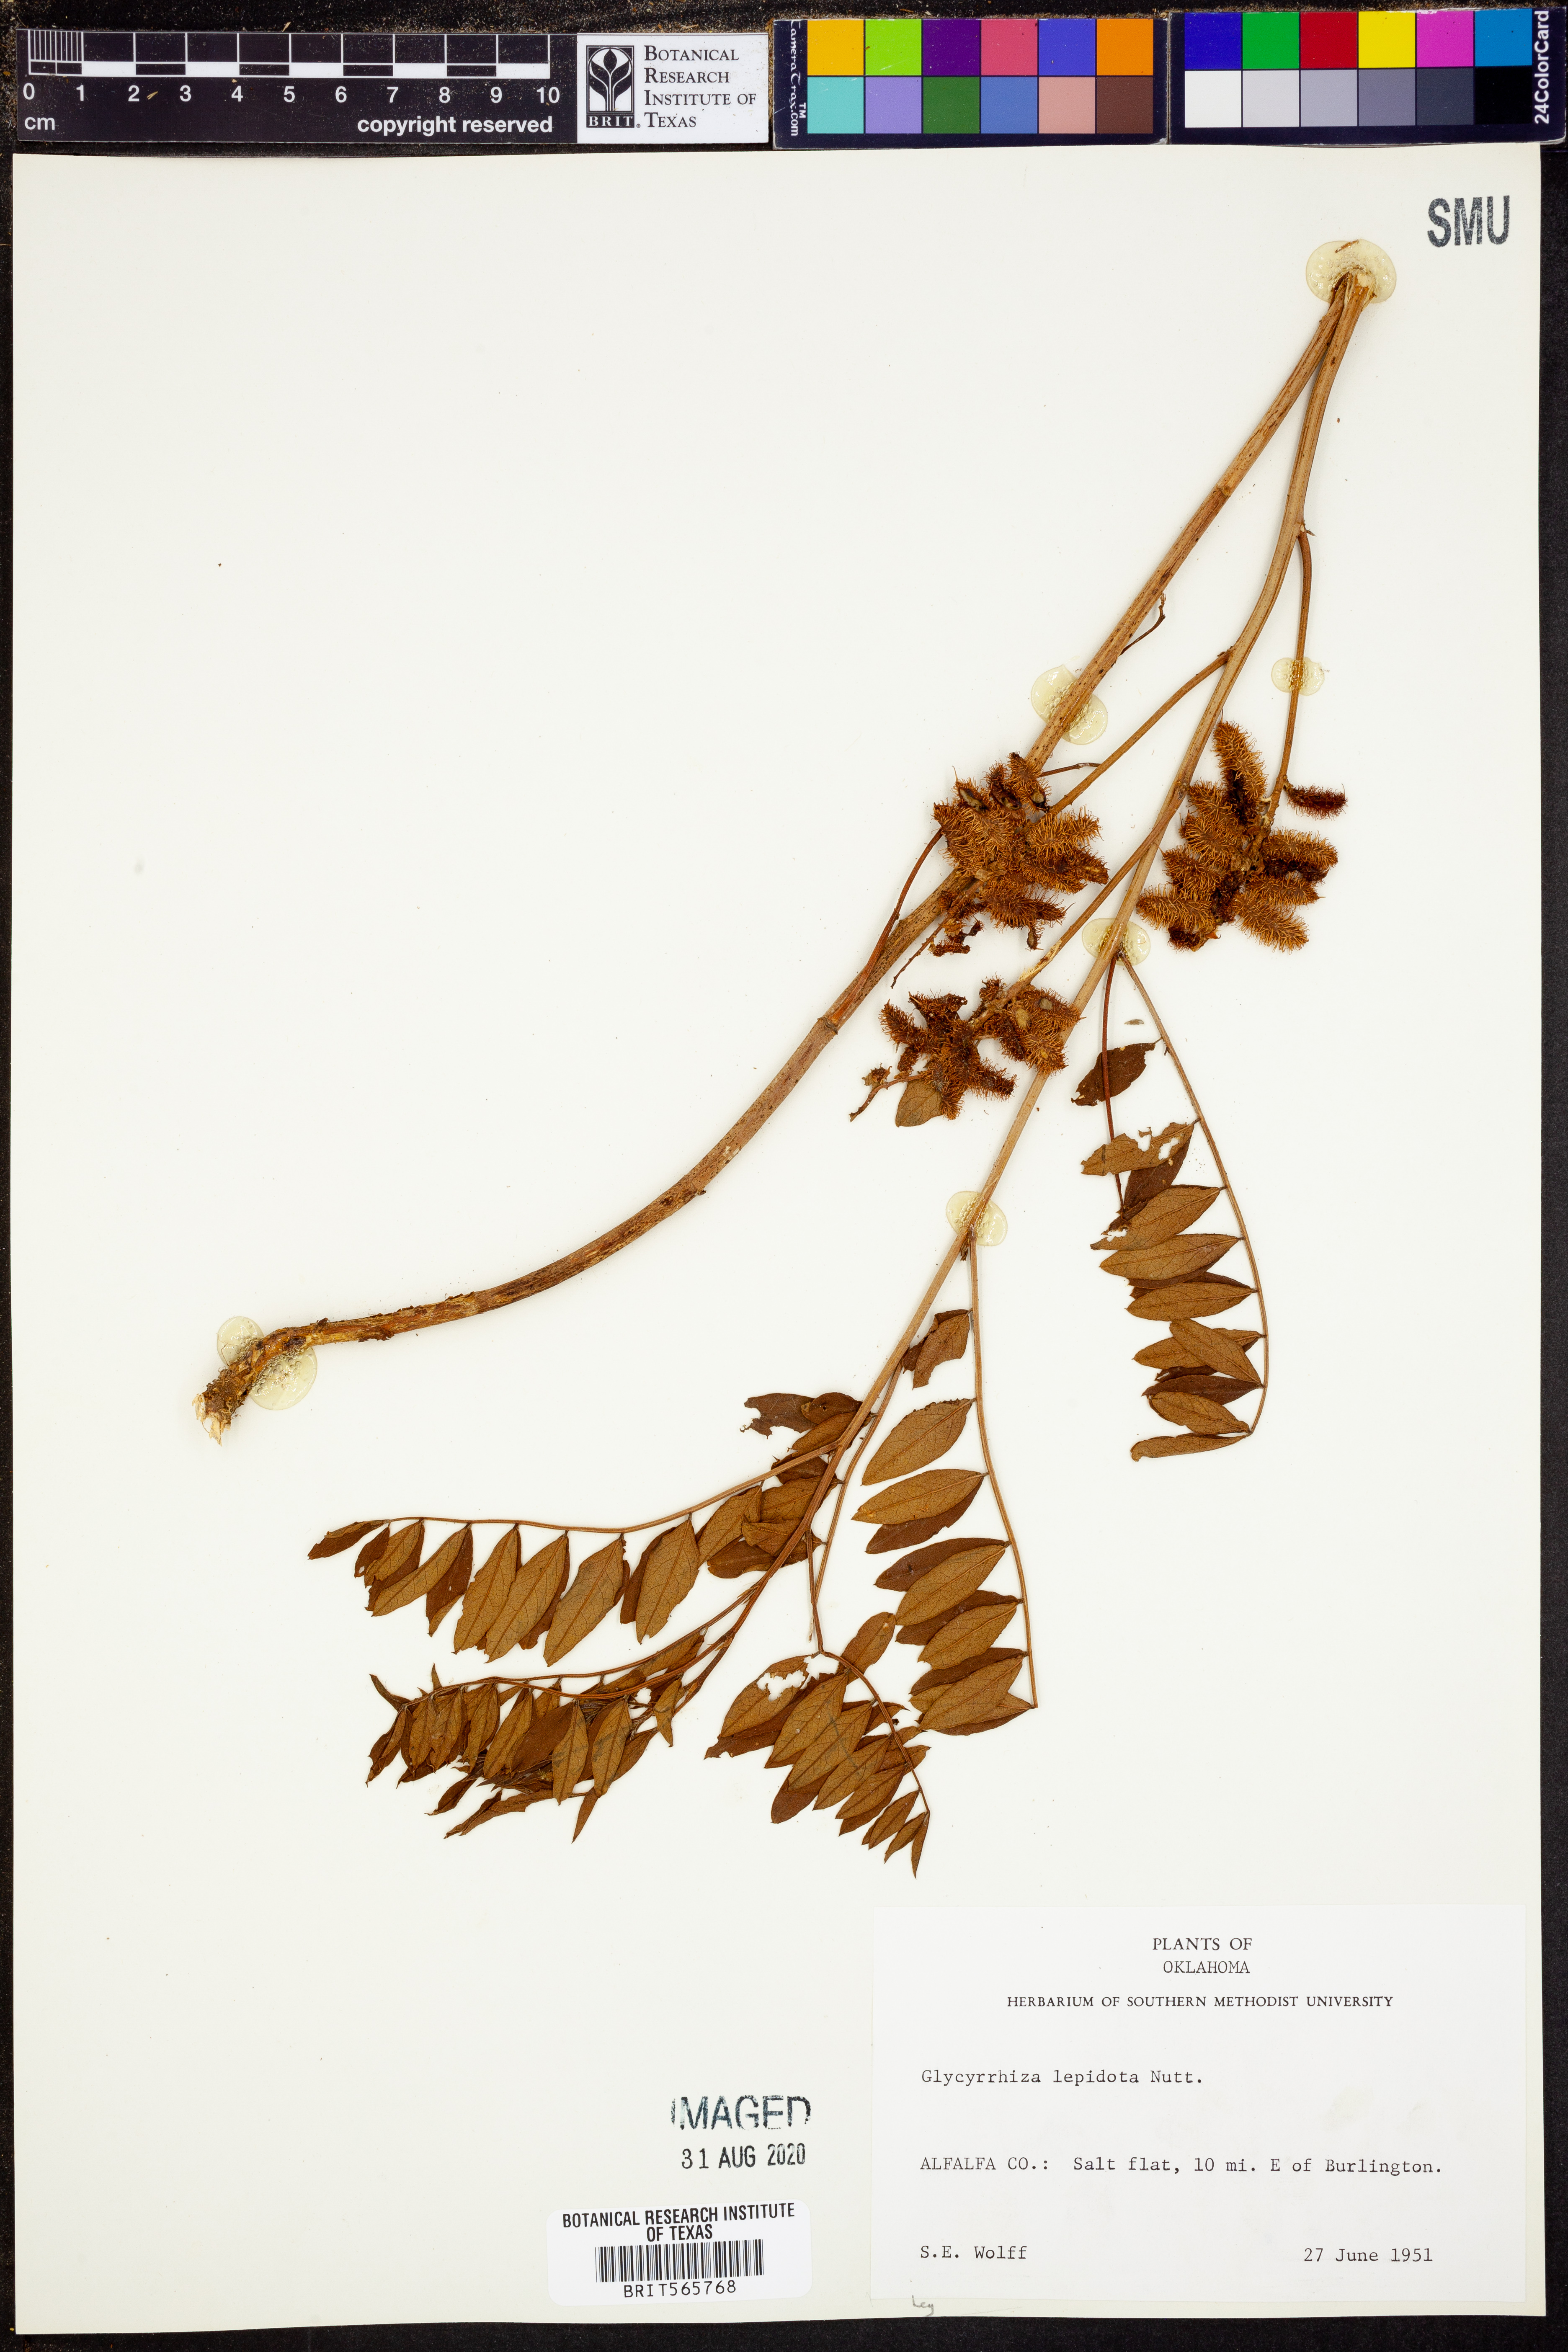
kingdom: Plantae
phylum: Tracheophyta
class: Magnoliopsida
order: Fabales
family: Fabaceae
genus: Glycyrrhiza
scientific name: Glycyrrhiza lepidota
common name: American liquorice
